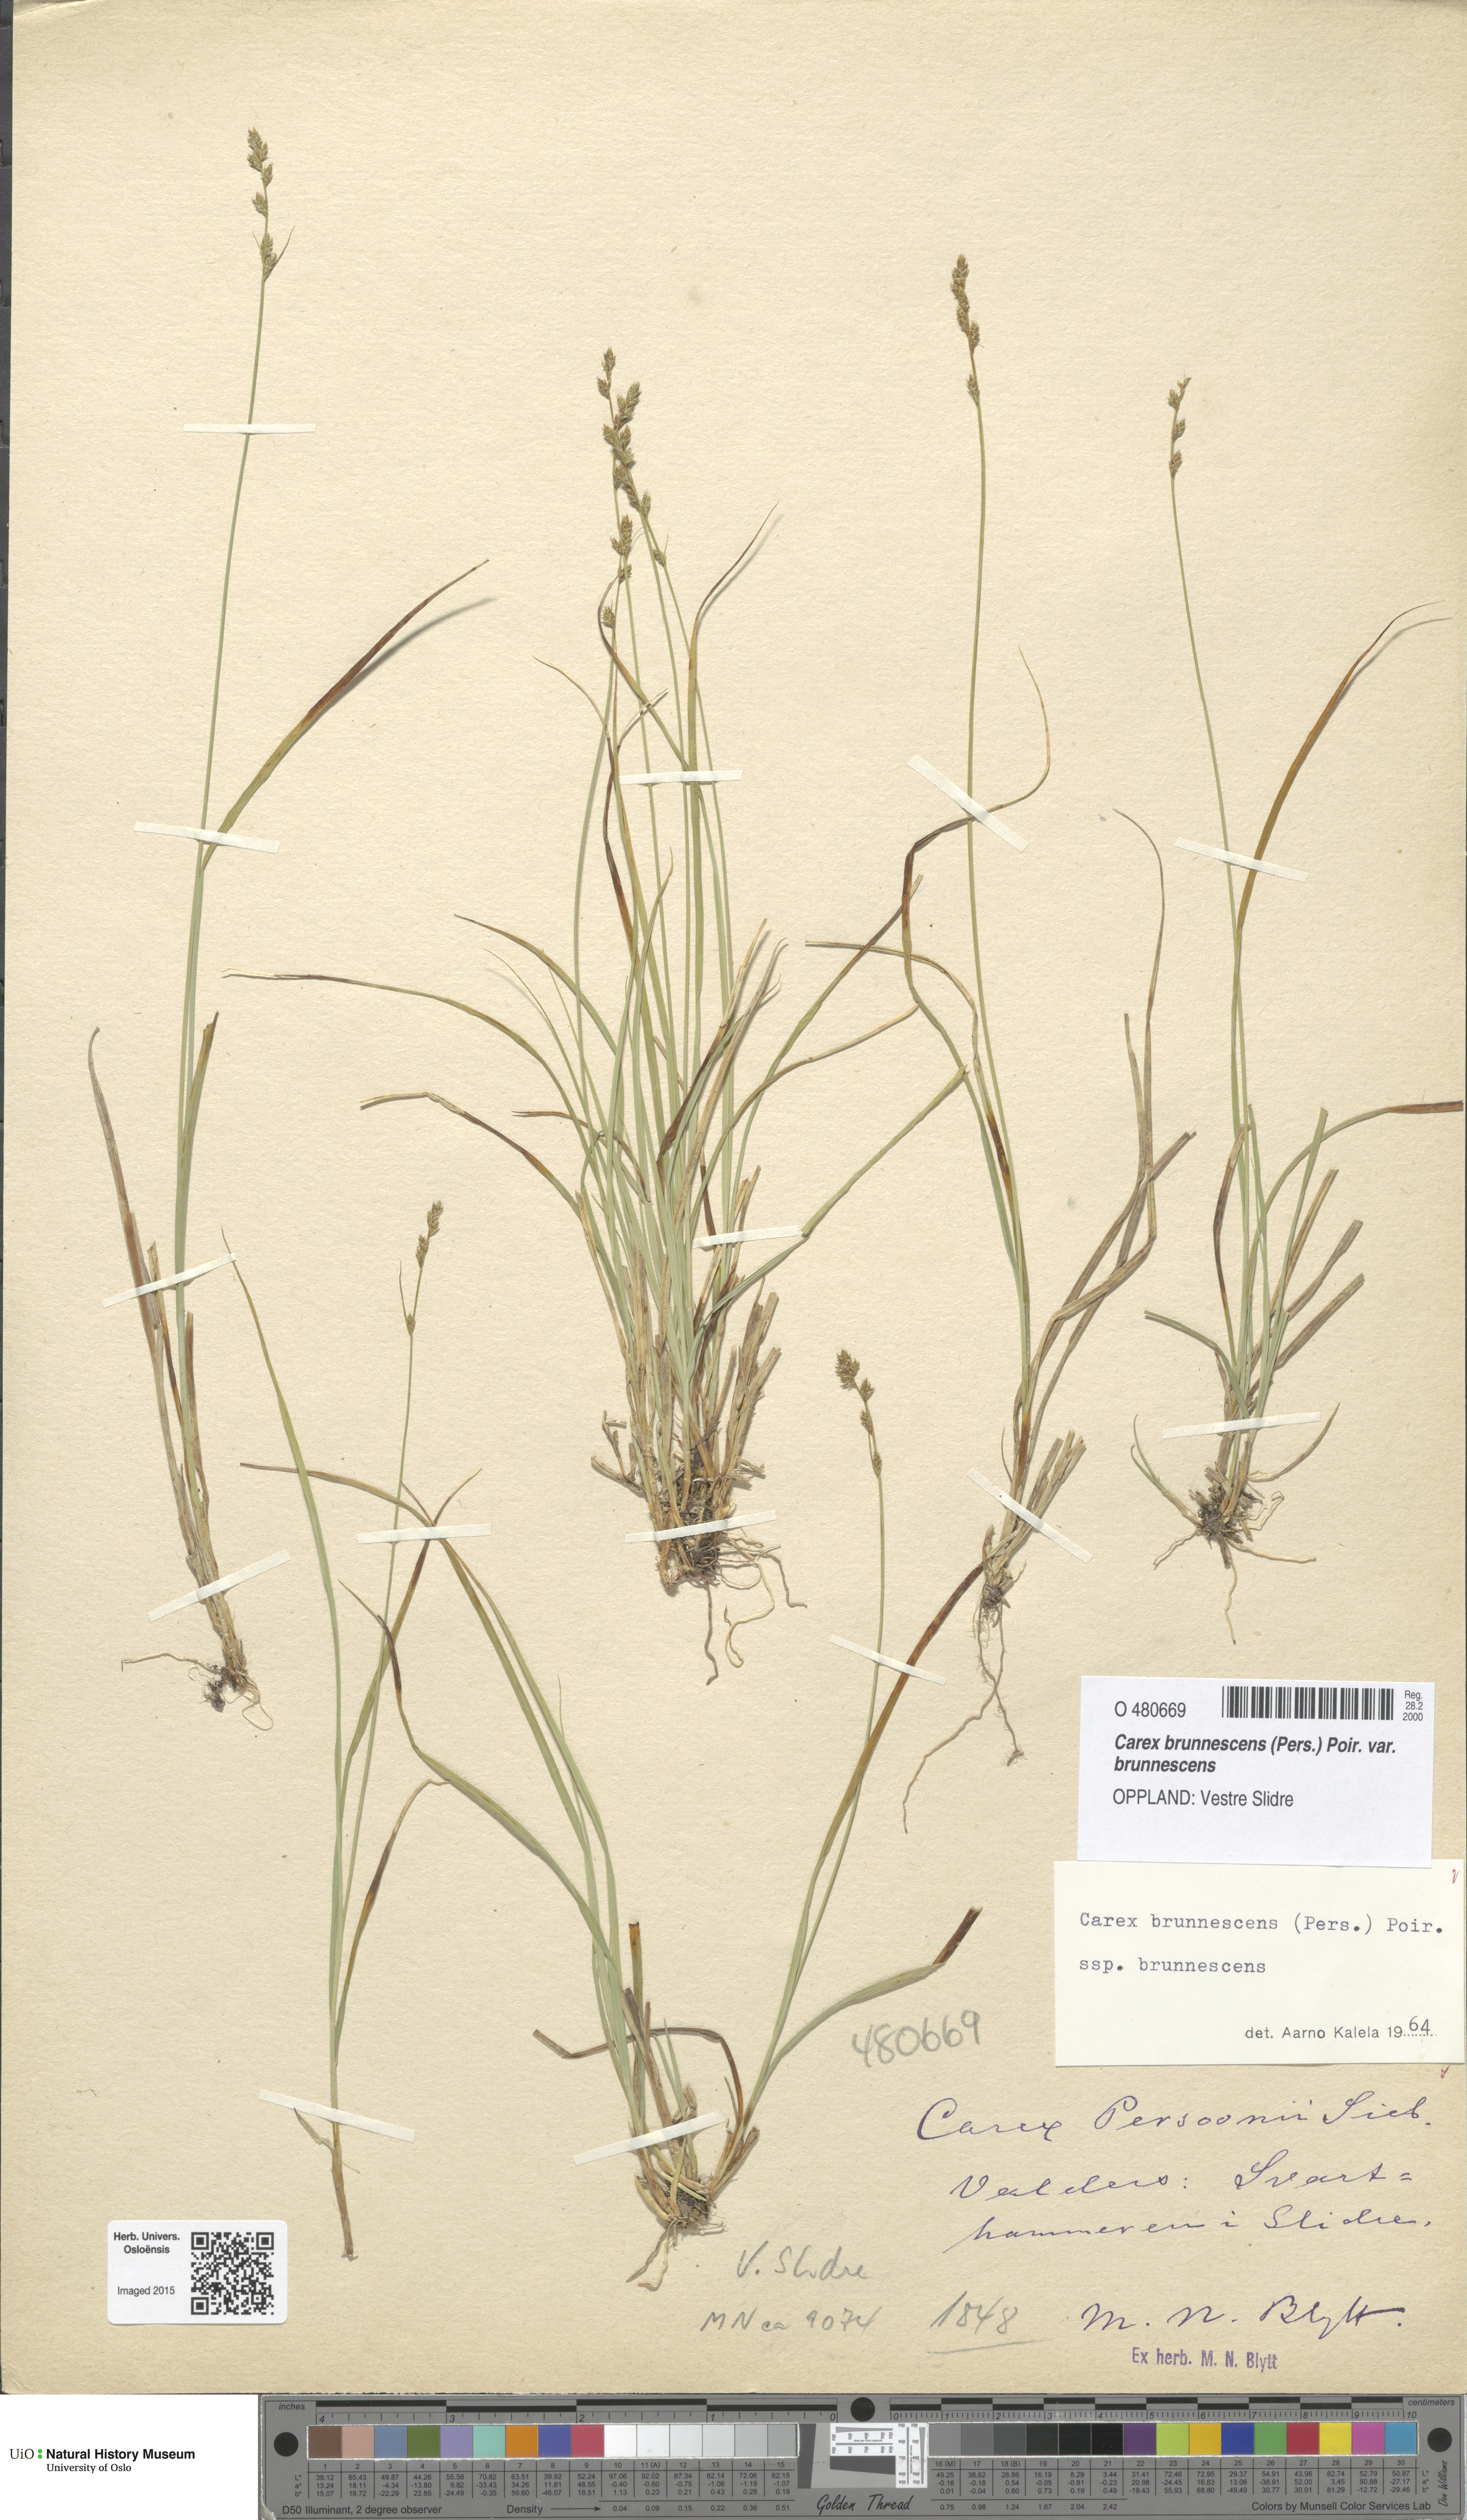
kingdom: Plantae
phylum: Tracheophyta
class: Liliopsida
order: Poales
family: Cyperaceae
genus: Carex
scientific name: Carex brunnescens
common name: Brown sedge
